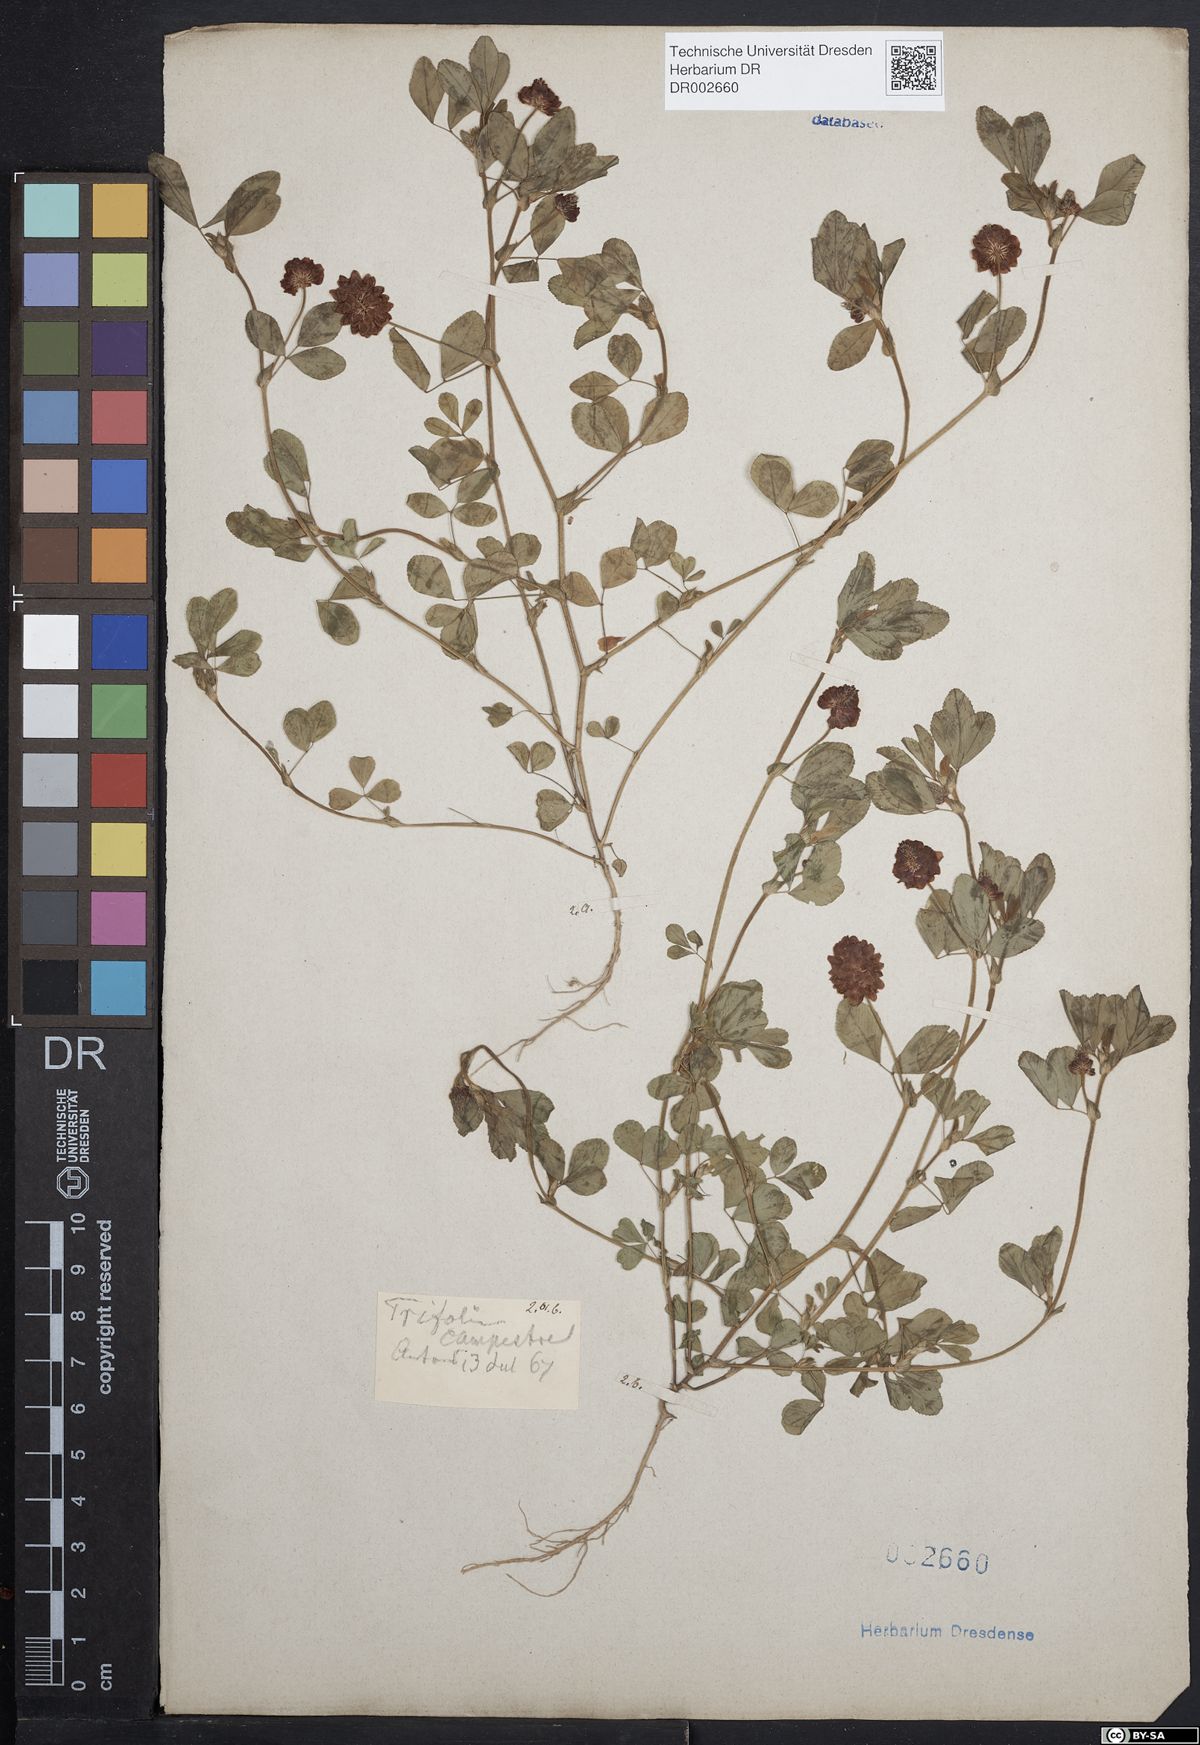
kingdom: Plantae
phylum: Tracheophyta
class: Magnoliopsida
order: Fabales
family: Fabaceae
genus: Trifolium
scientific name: Trifolium campestre
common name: Field clover
